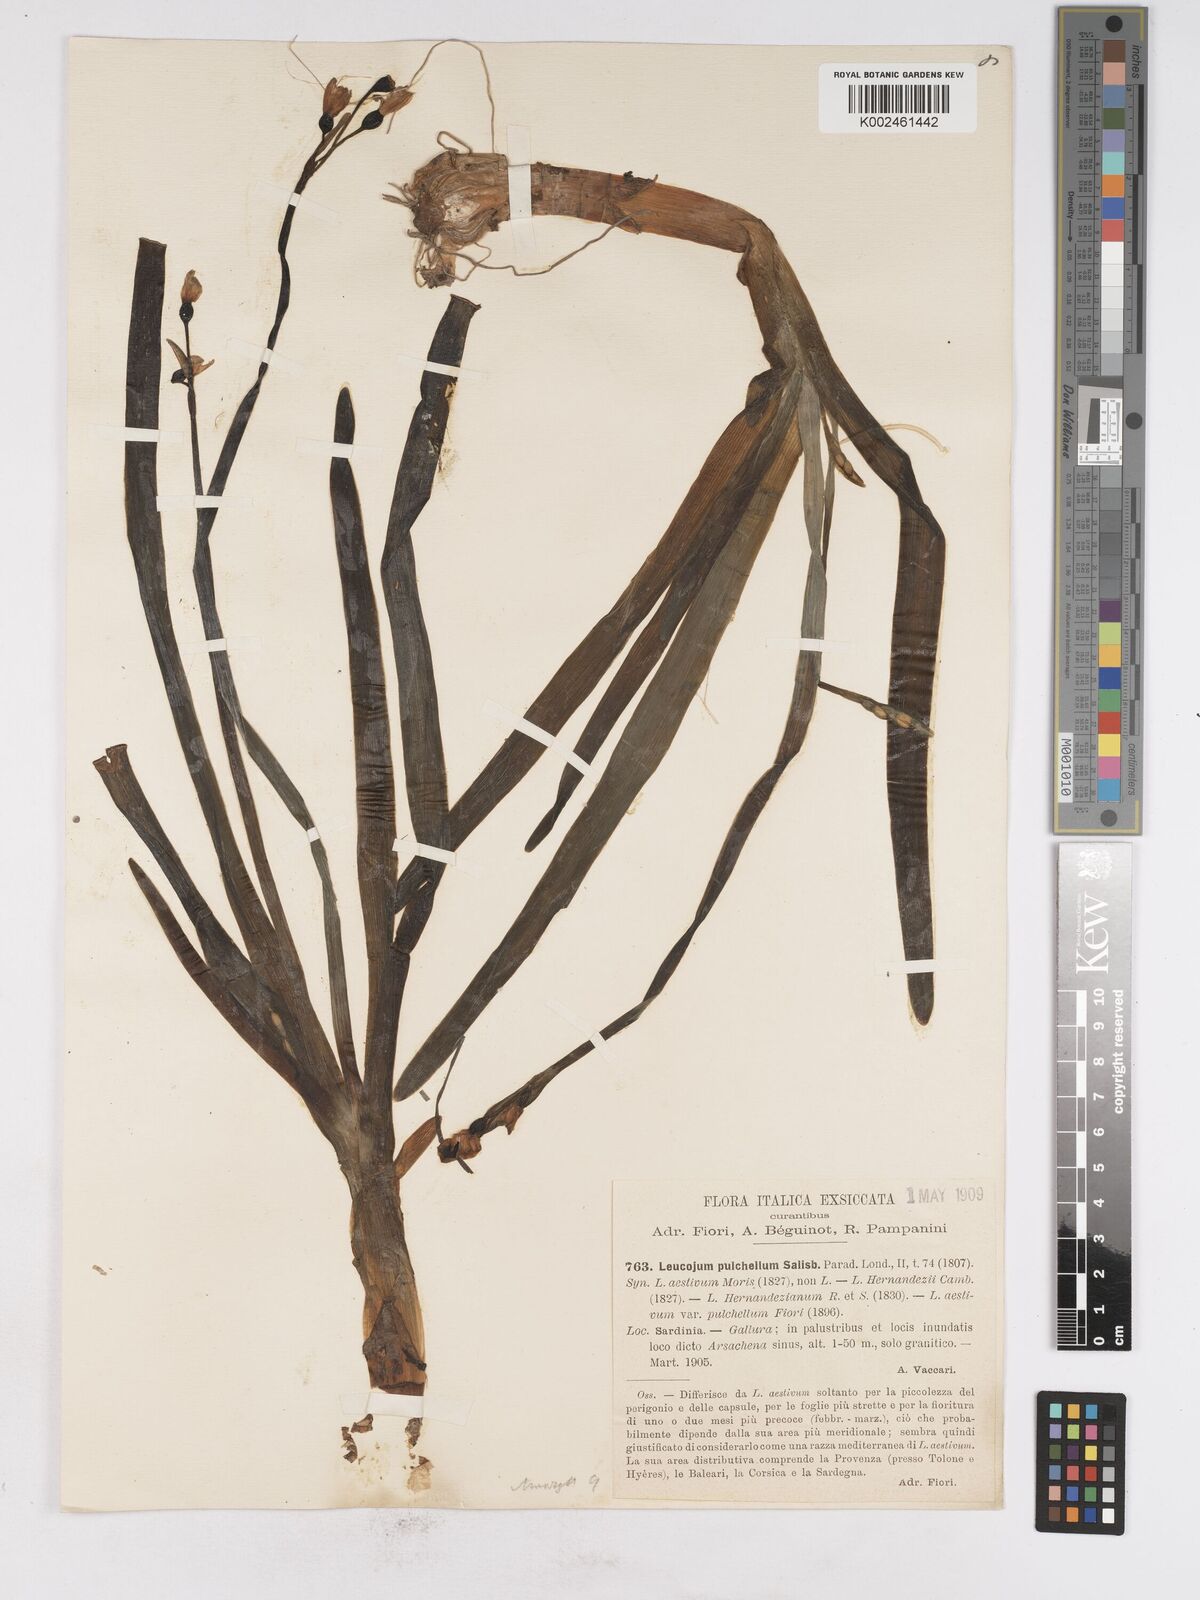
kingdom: Plantae
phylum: Tracheophyta
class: Liliopsida
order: Asparagales
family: Amaryllidaceae
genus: Leucojum
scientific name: Leucojum aestivum
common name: Summer snowflake
